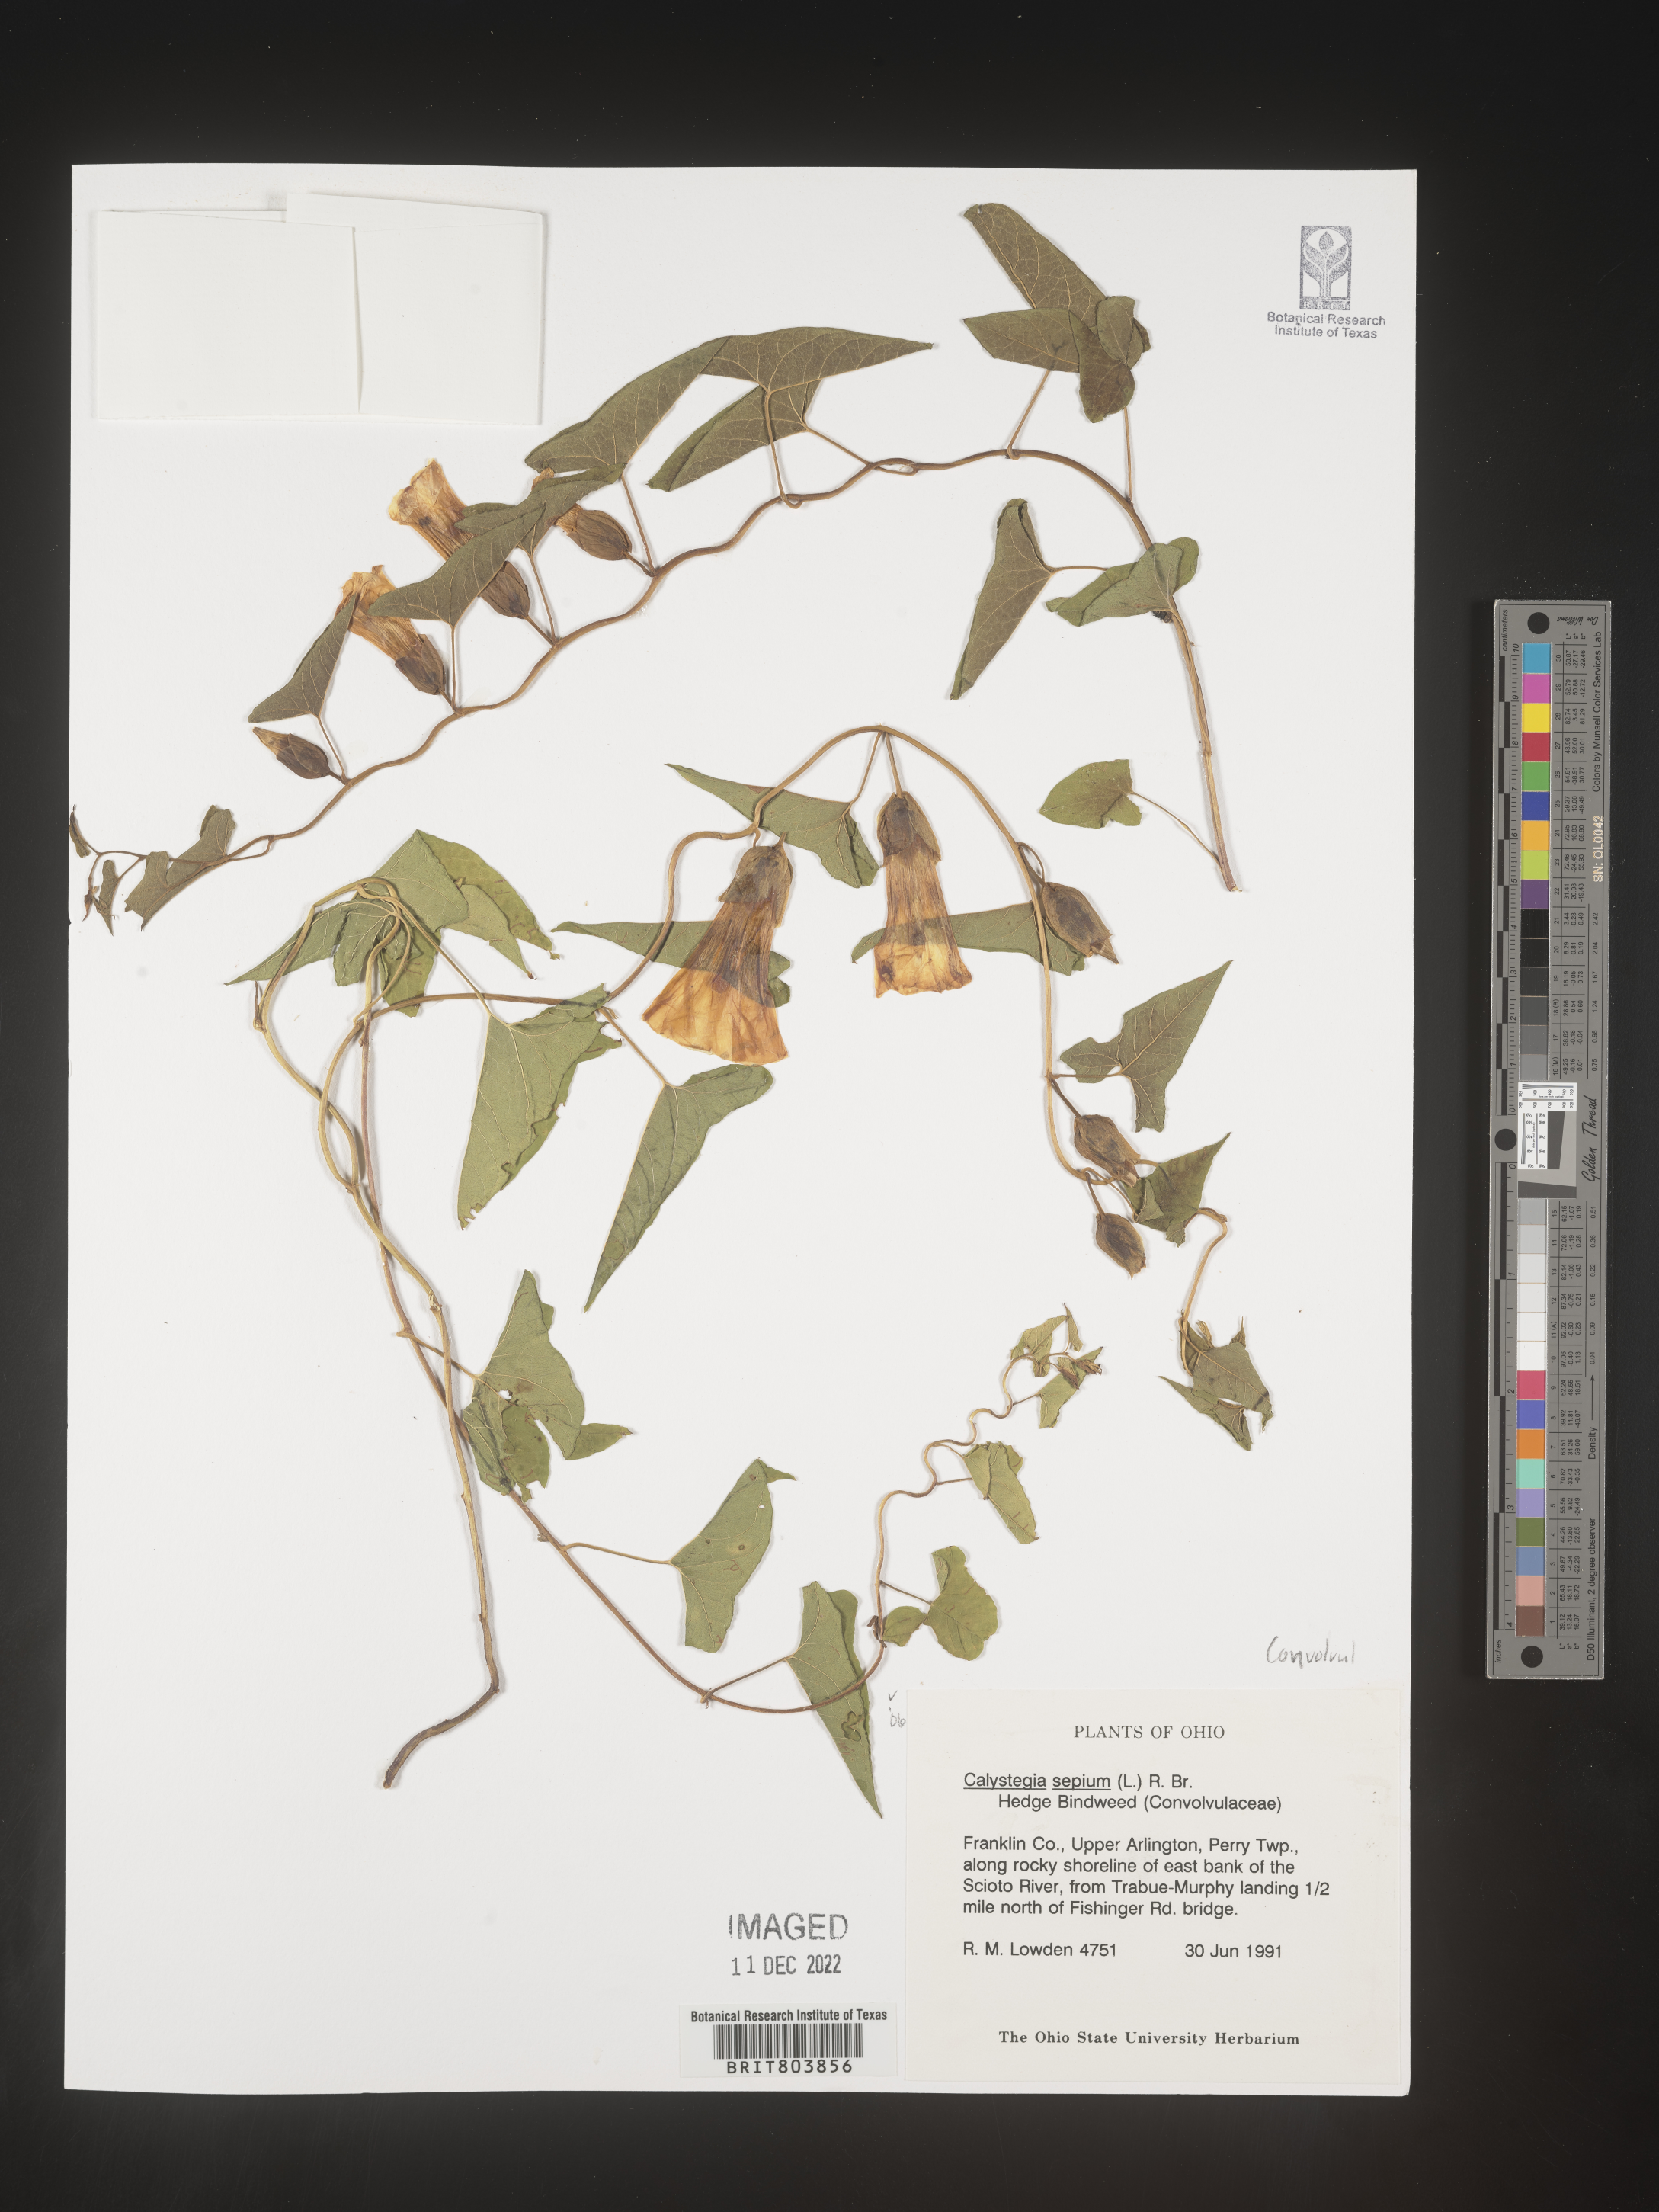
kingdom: Plantae
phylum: Tracheophyta
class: Magnoliopsida
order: Solanales
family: Convolvulaceae
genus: Calystegia
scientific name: Calystegia sepium
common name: Hedge bindweed
